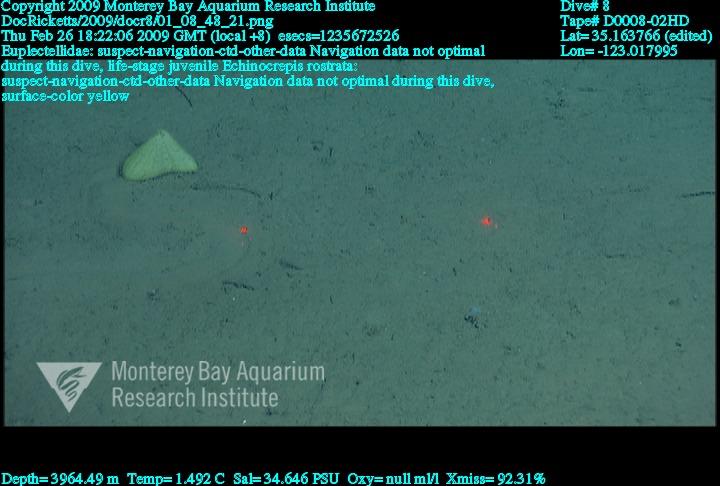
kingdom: Animalia
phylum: Porifera
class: Hexactinellida
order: Lyssacinosida
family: Euplectellidae
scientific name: Euplectellidae
